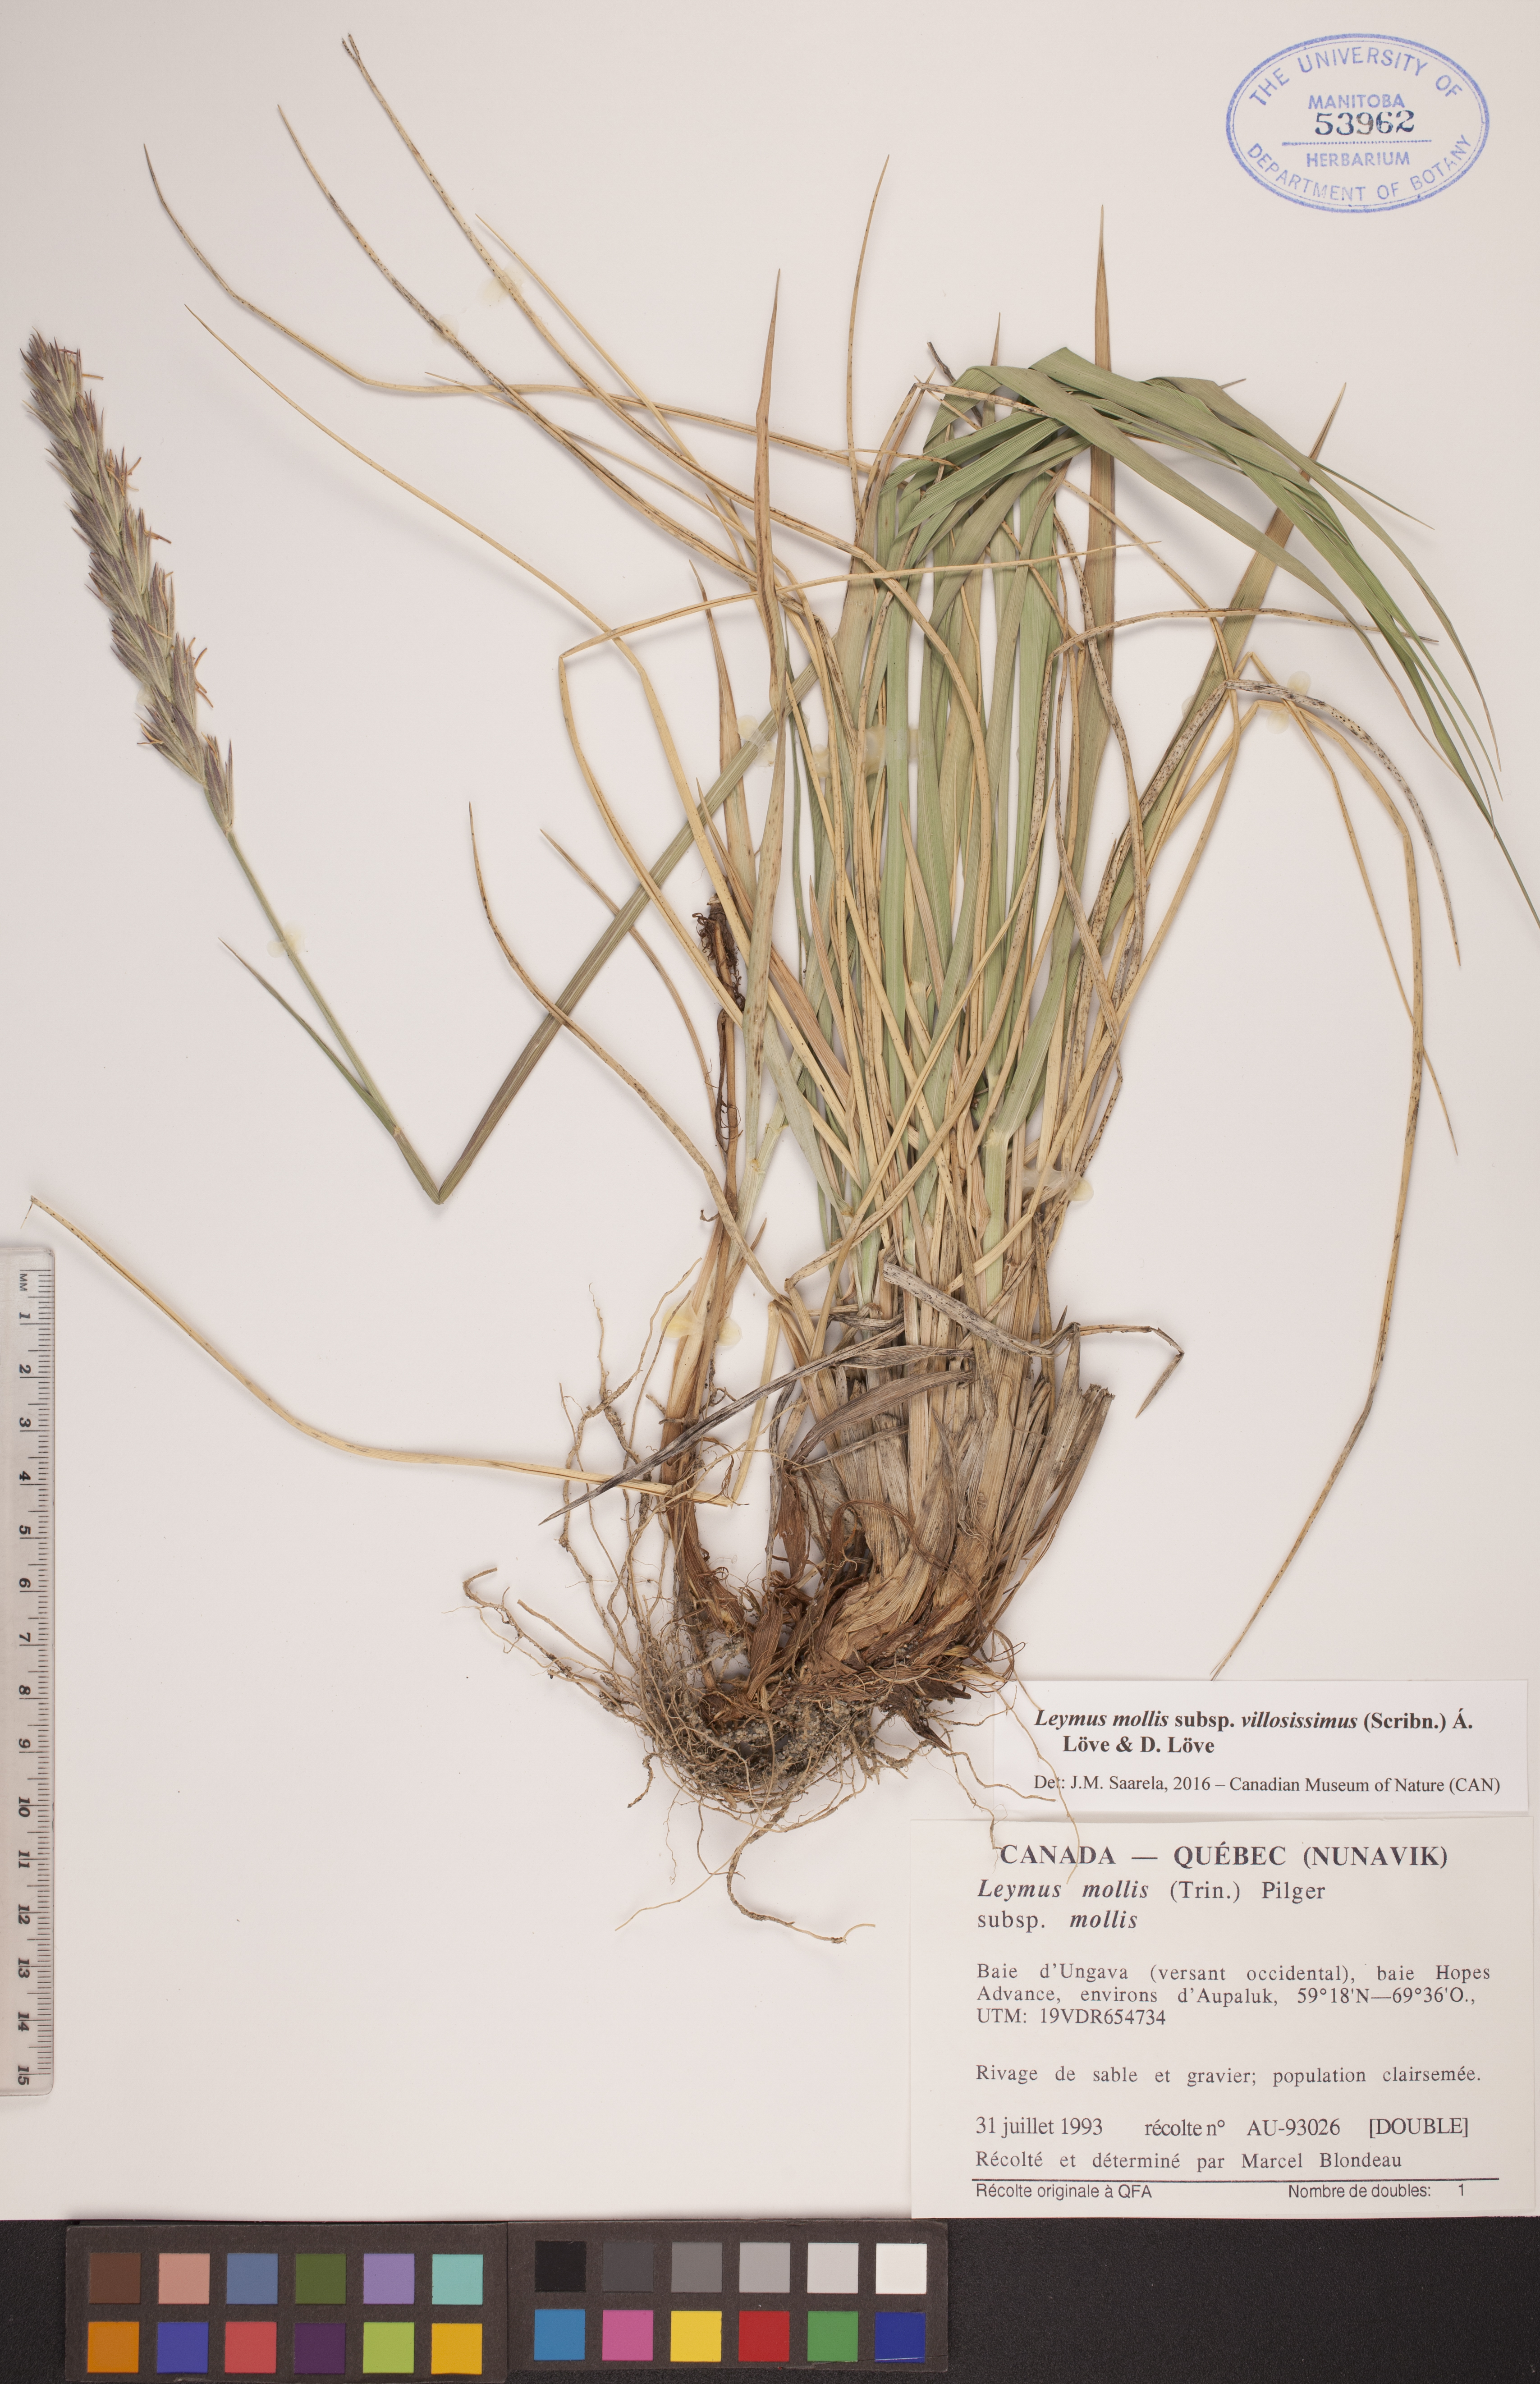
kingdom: Plantae
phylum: Tracheophyta
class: Liliopsida
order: Poales
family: Poaceae
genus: Leymus
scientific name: Leymus villosissimus
